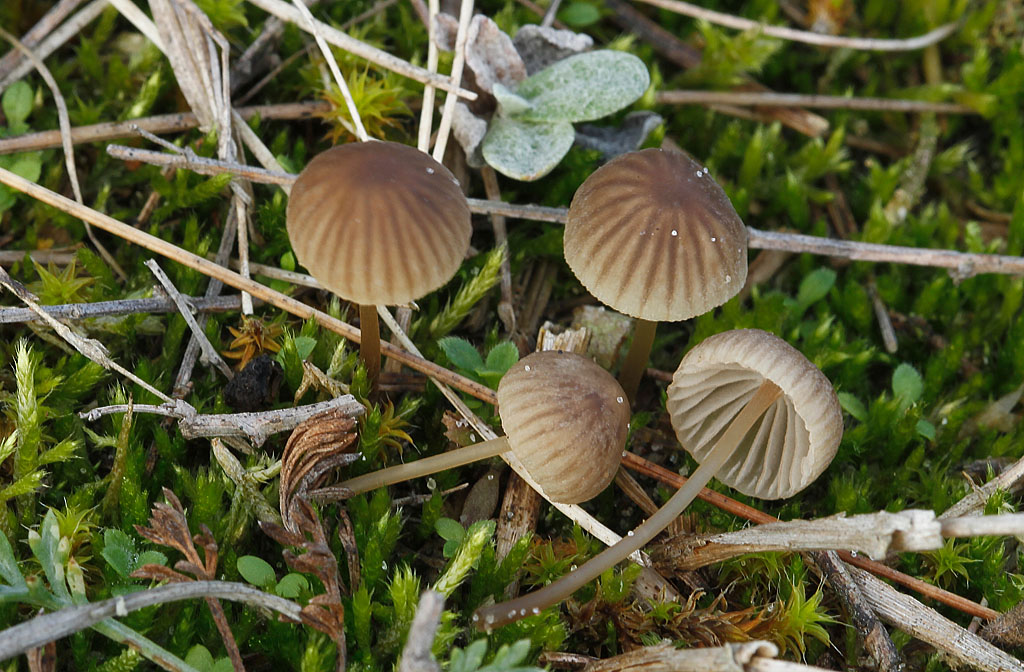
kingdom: Fungi
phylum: Basidiomycota
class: Agaricomycetes
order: Agaricales
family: Mycenaceae
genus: Mycena
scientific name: Mycena olivaceomarginata
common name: brunægget huesvamp
